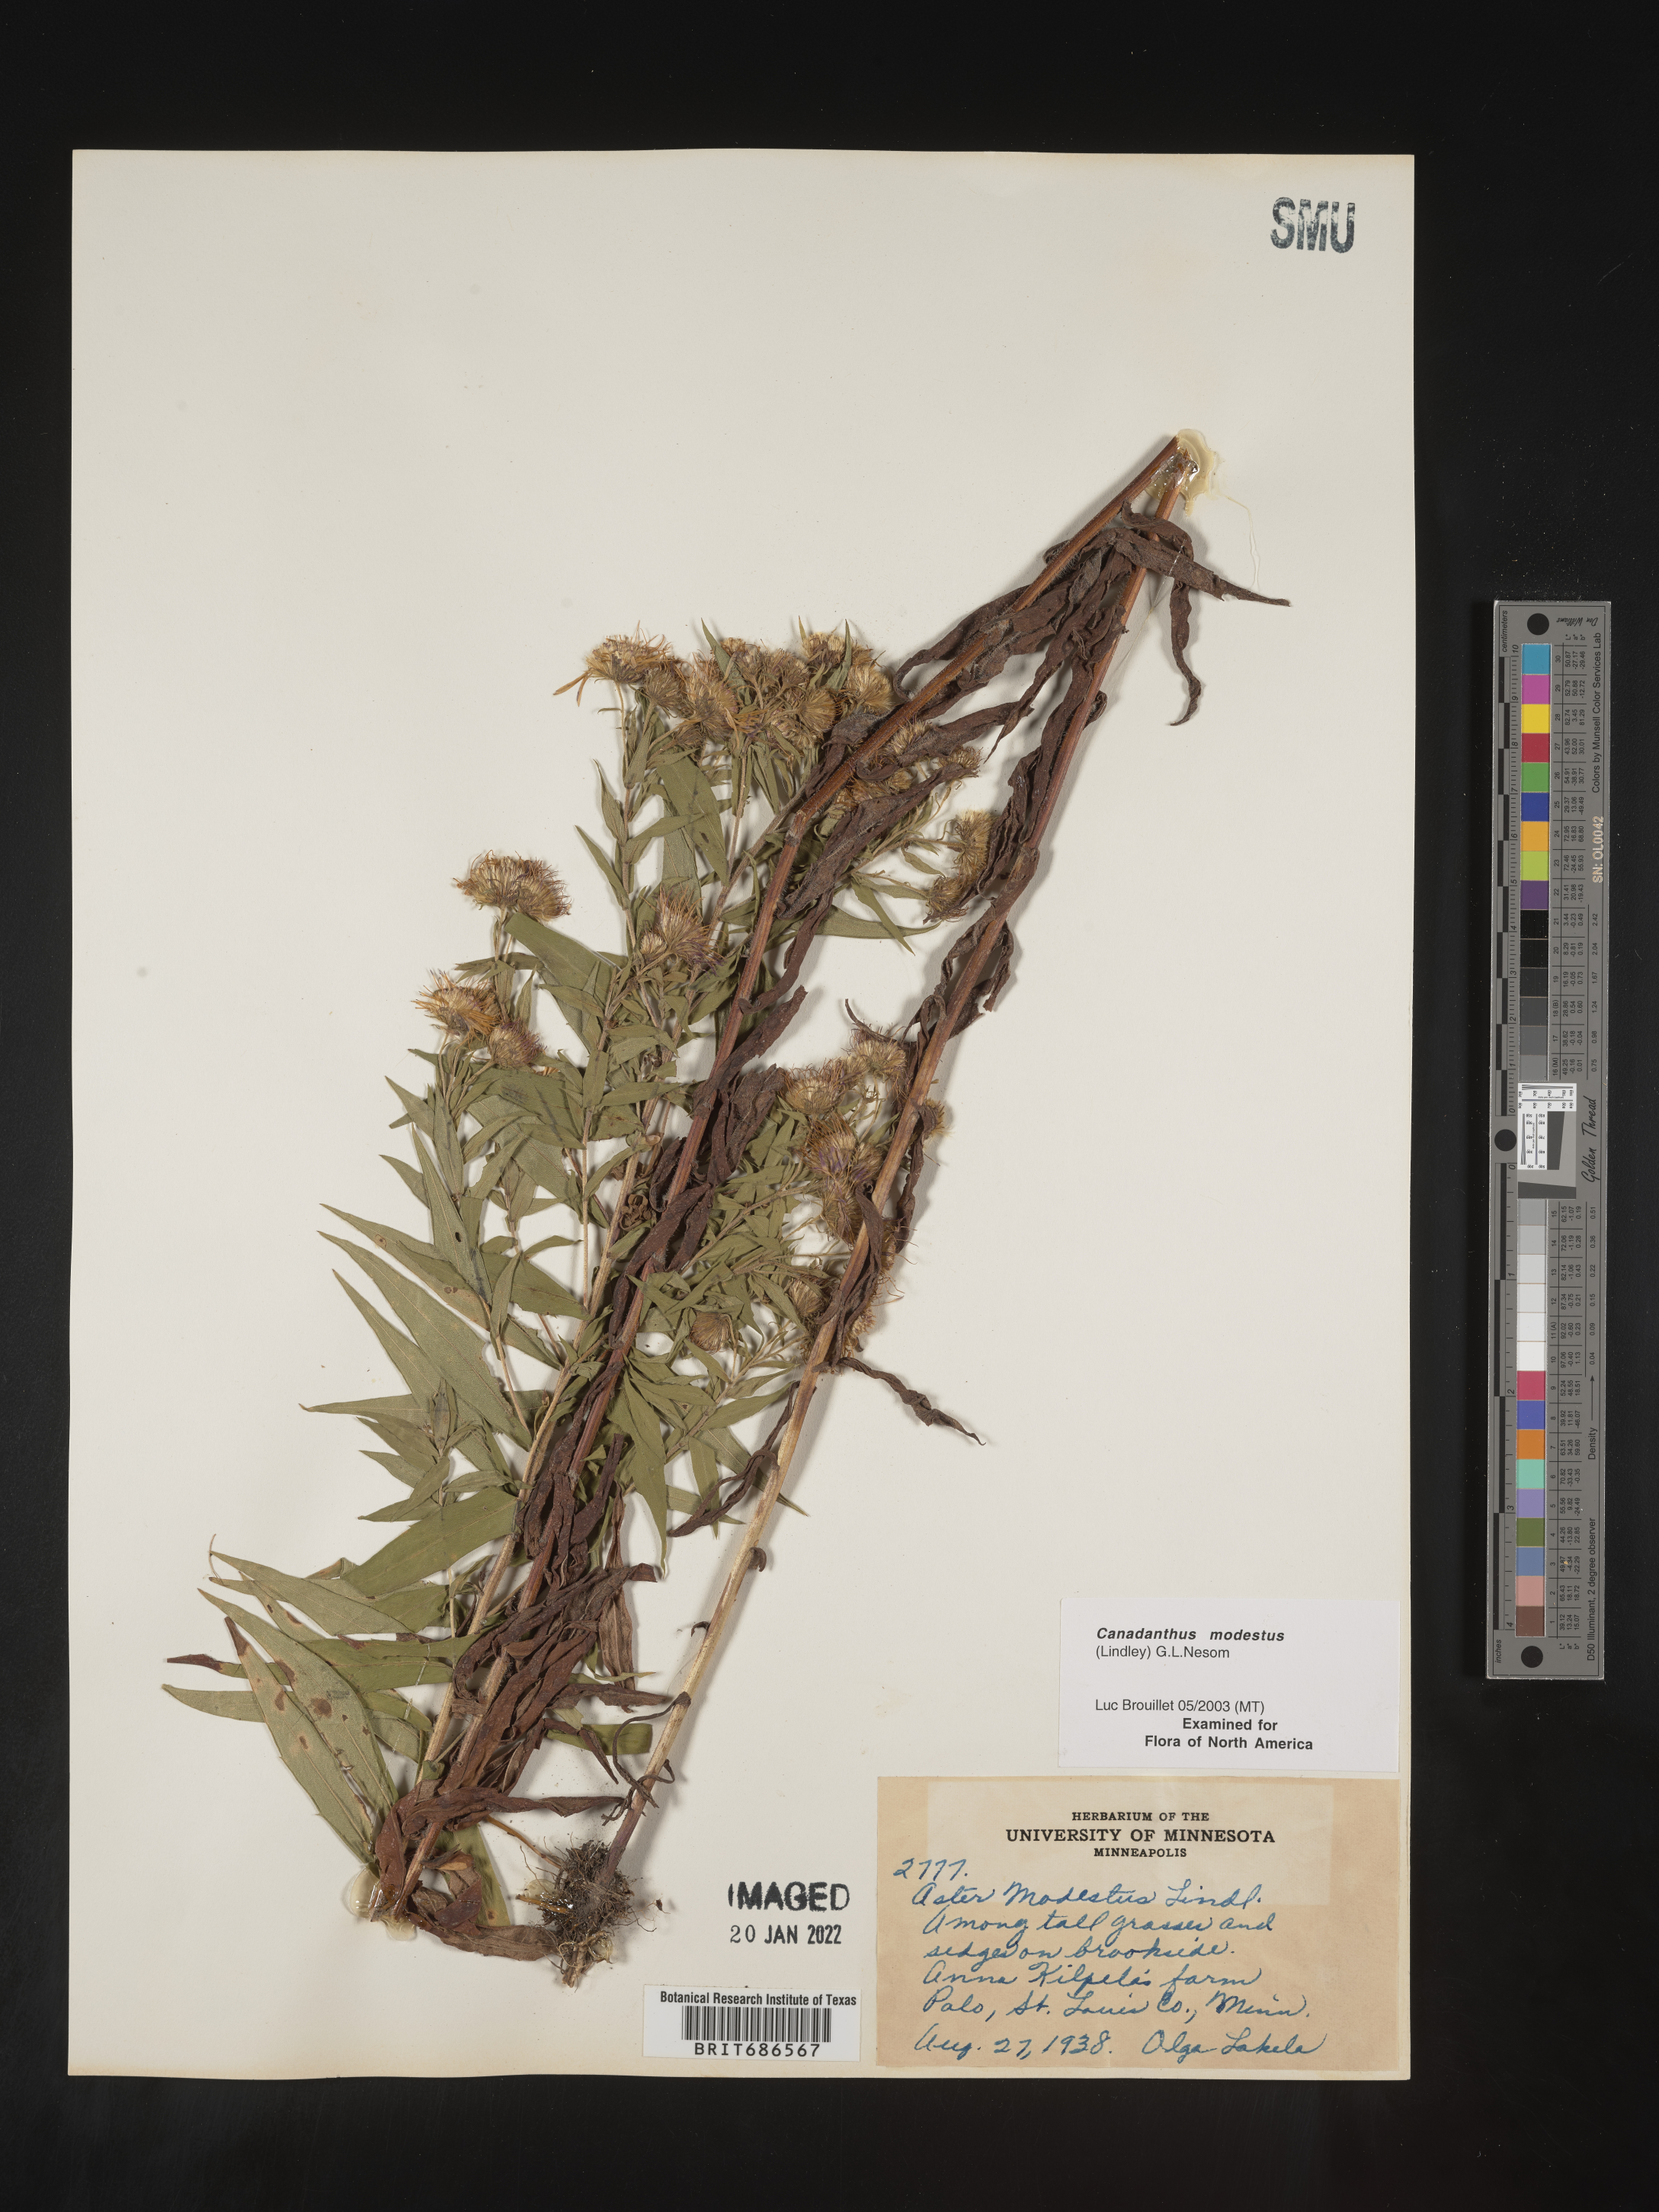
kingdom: Plantae
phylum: Tracheophyta
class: Magnoliopsida
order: Asterales
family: Asteraceae
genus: Canadanthus
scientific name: Canadanthus modestus
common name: Great northern aster
